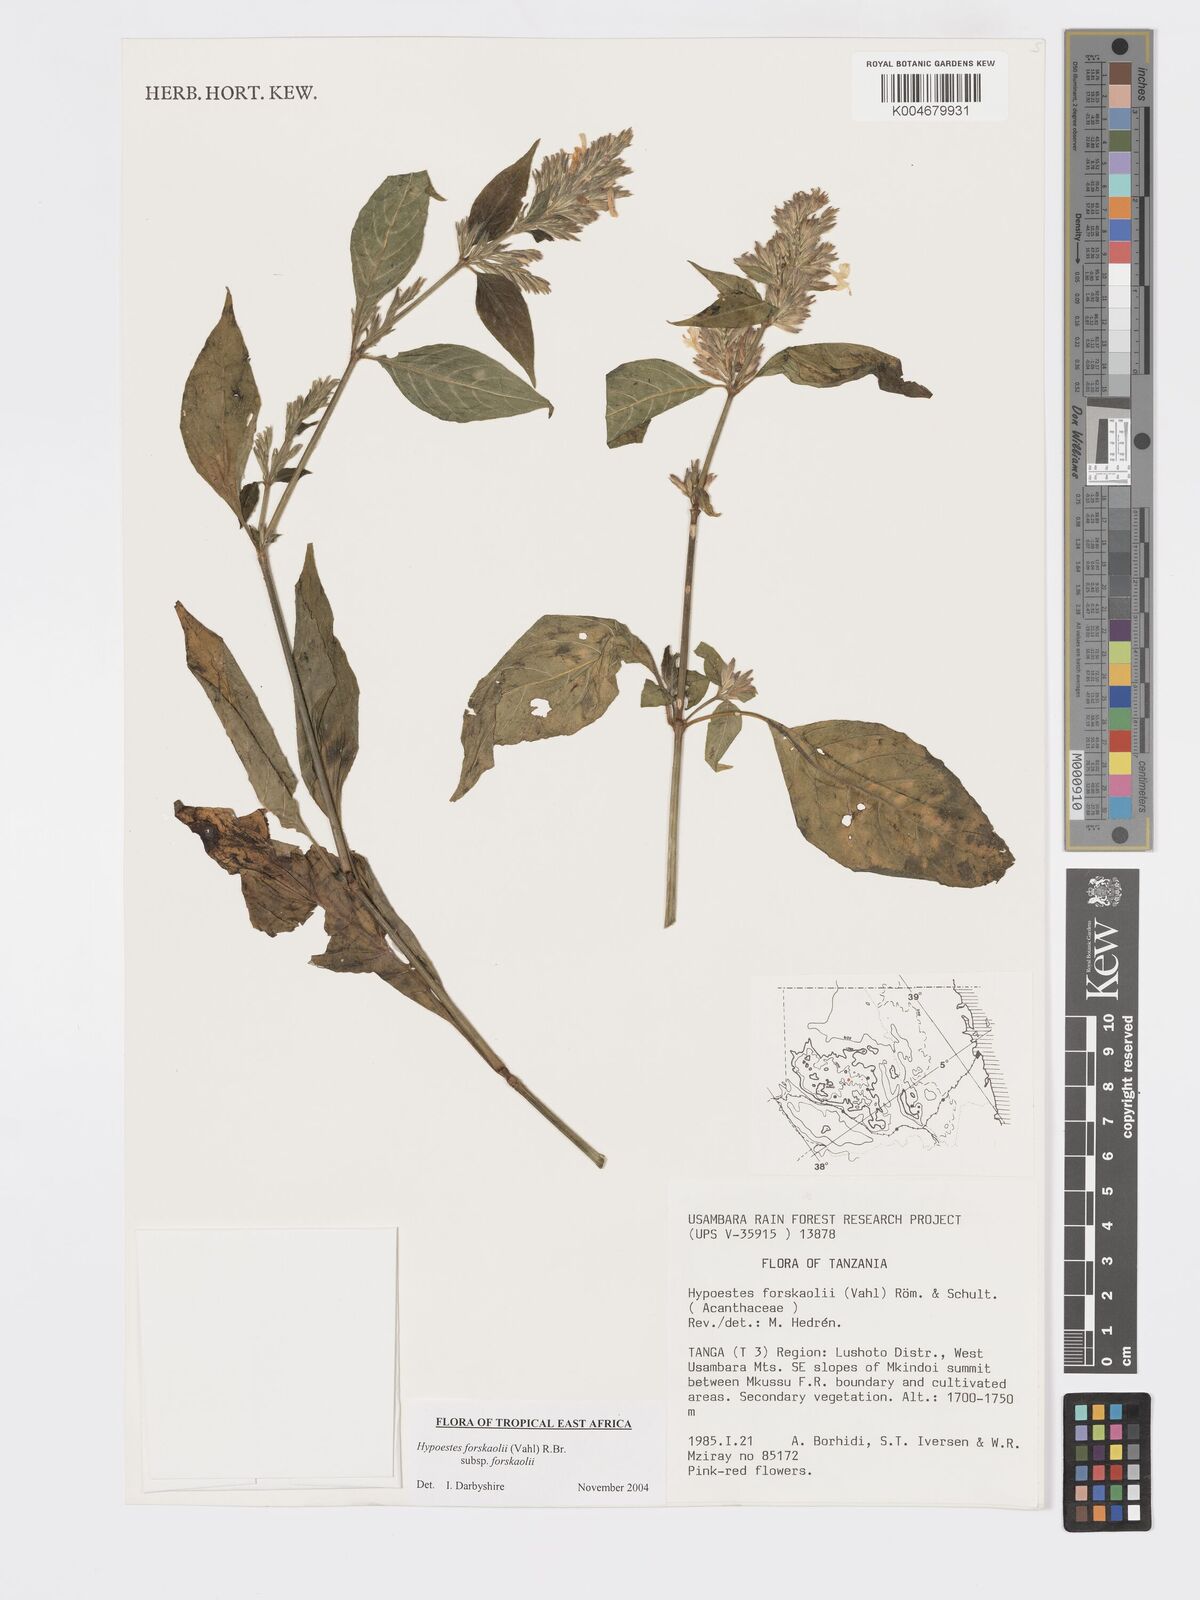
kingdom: Plantae
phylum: Tracheophyta
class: Magnoliopsida
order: Lamiales
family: Acanthaceae
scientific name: Acanthaceae
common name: Acanthaceae
